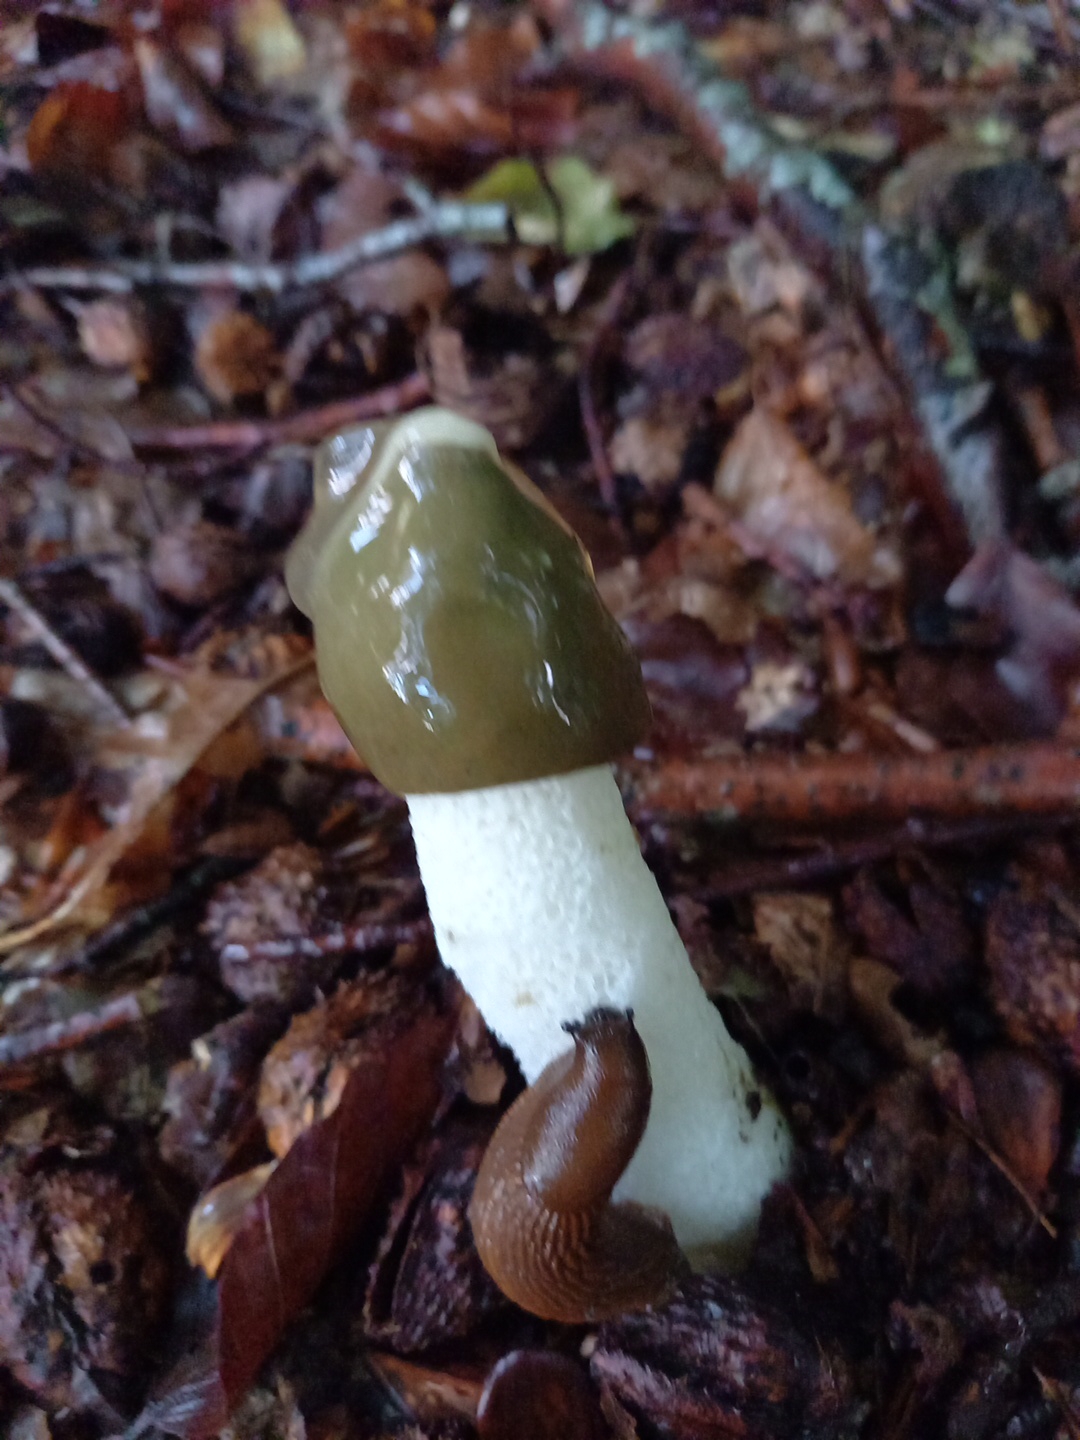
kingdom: Fungi
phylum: Basidiomycota
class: Agaricomycetes
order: Phallales
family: Phallaceae
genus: Phallus
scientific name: Phallus impudicus
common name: almindelig stinksvamp
